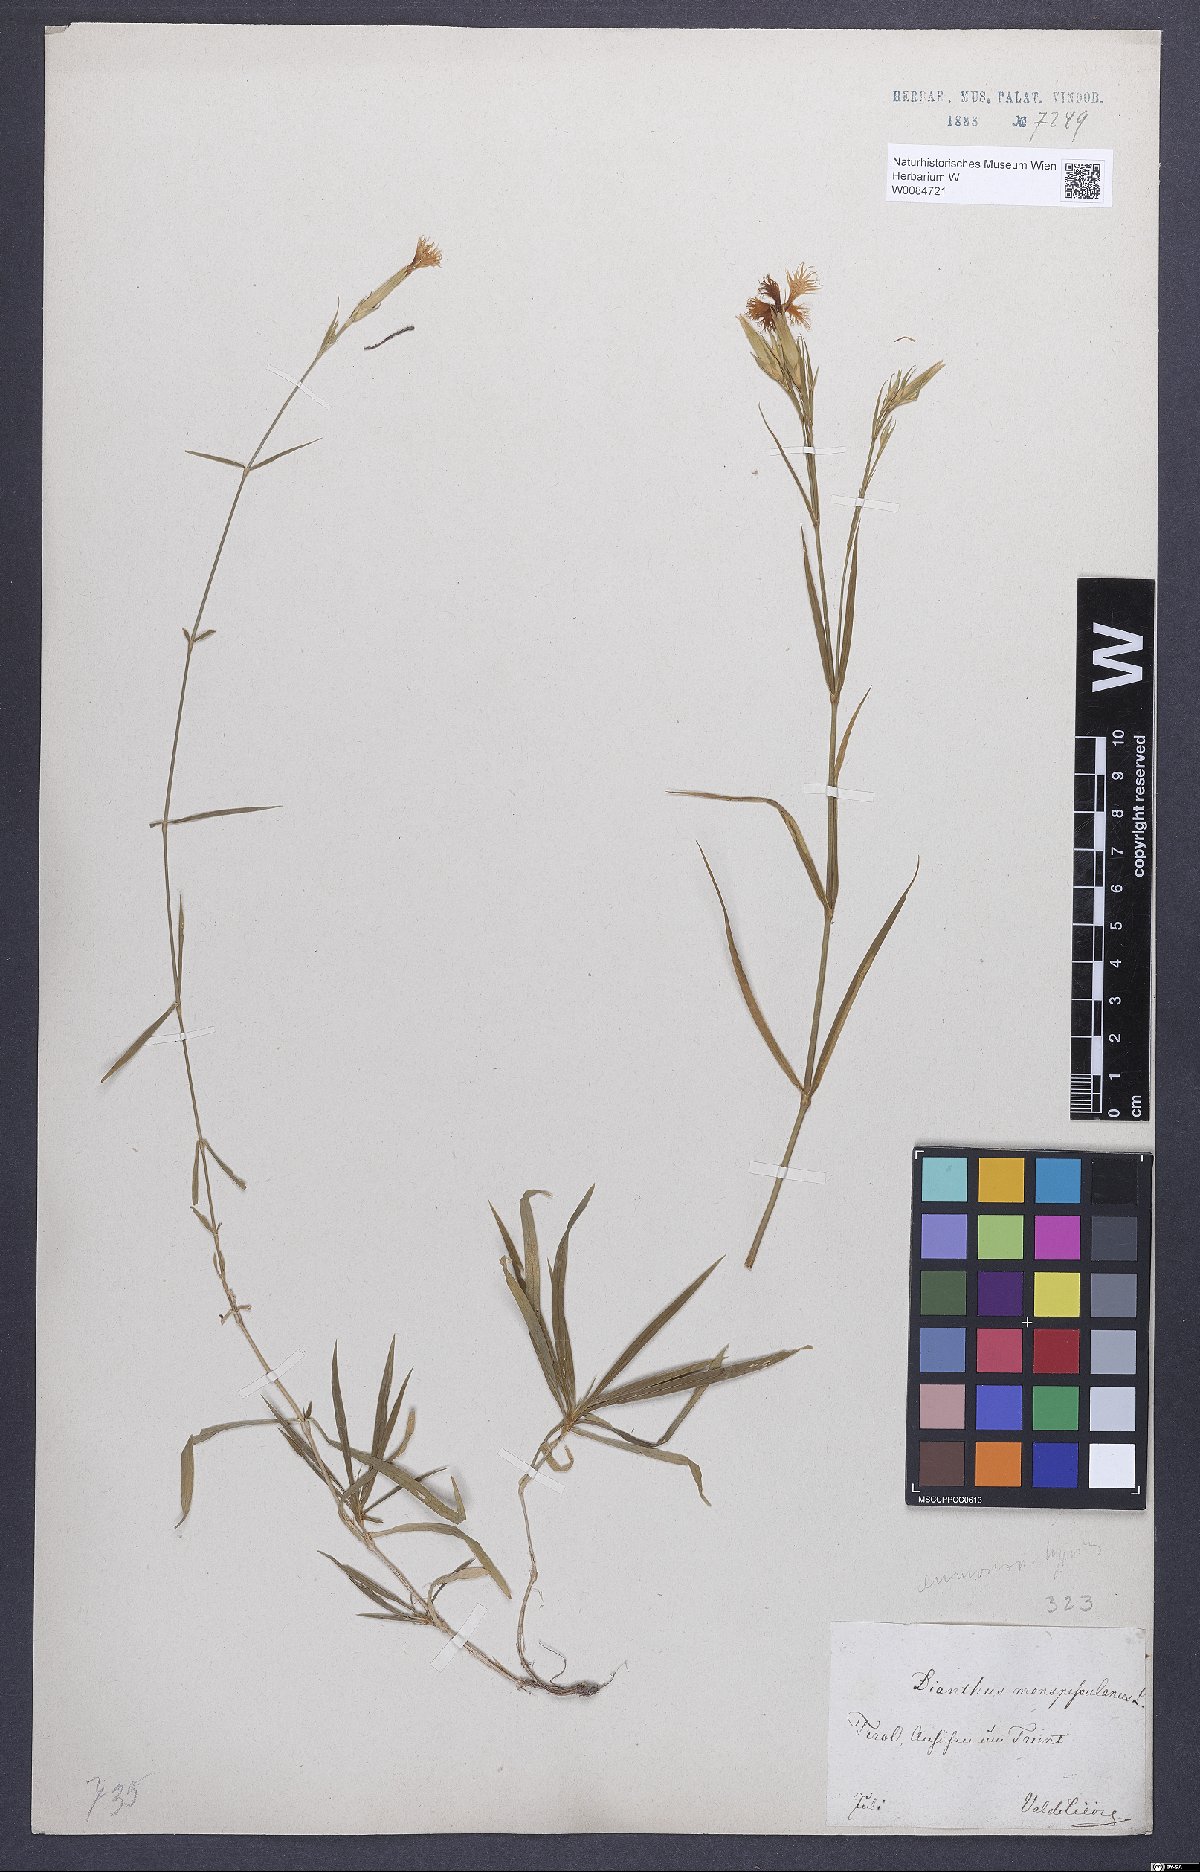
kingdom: Plantae
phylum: Tracheophyta
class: Magnoliopsida
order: Caryophyllales
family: Caryophyllaceae
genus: Dianthus
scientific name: Dianthus hyssopifolius
